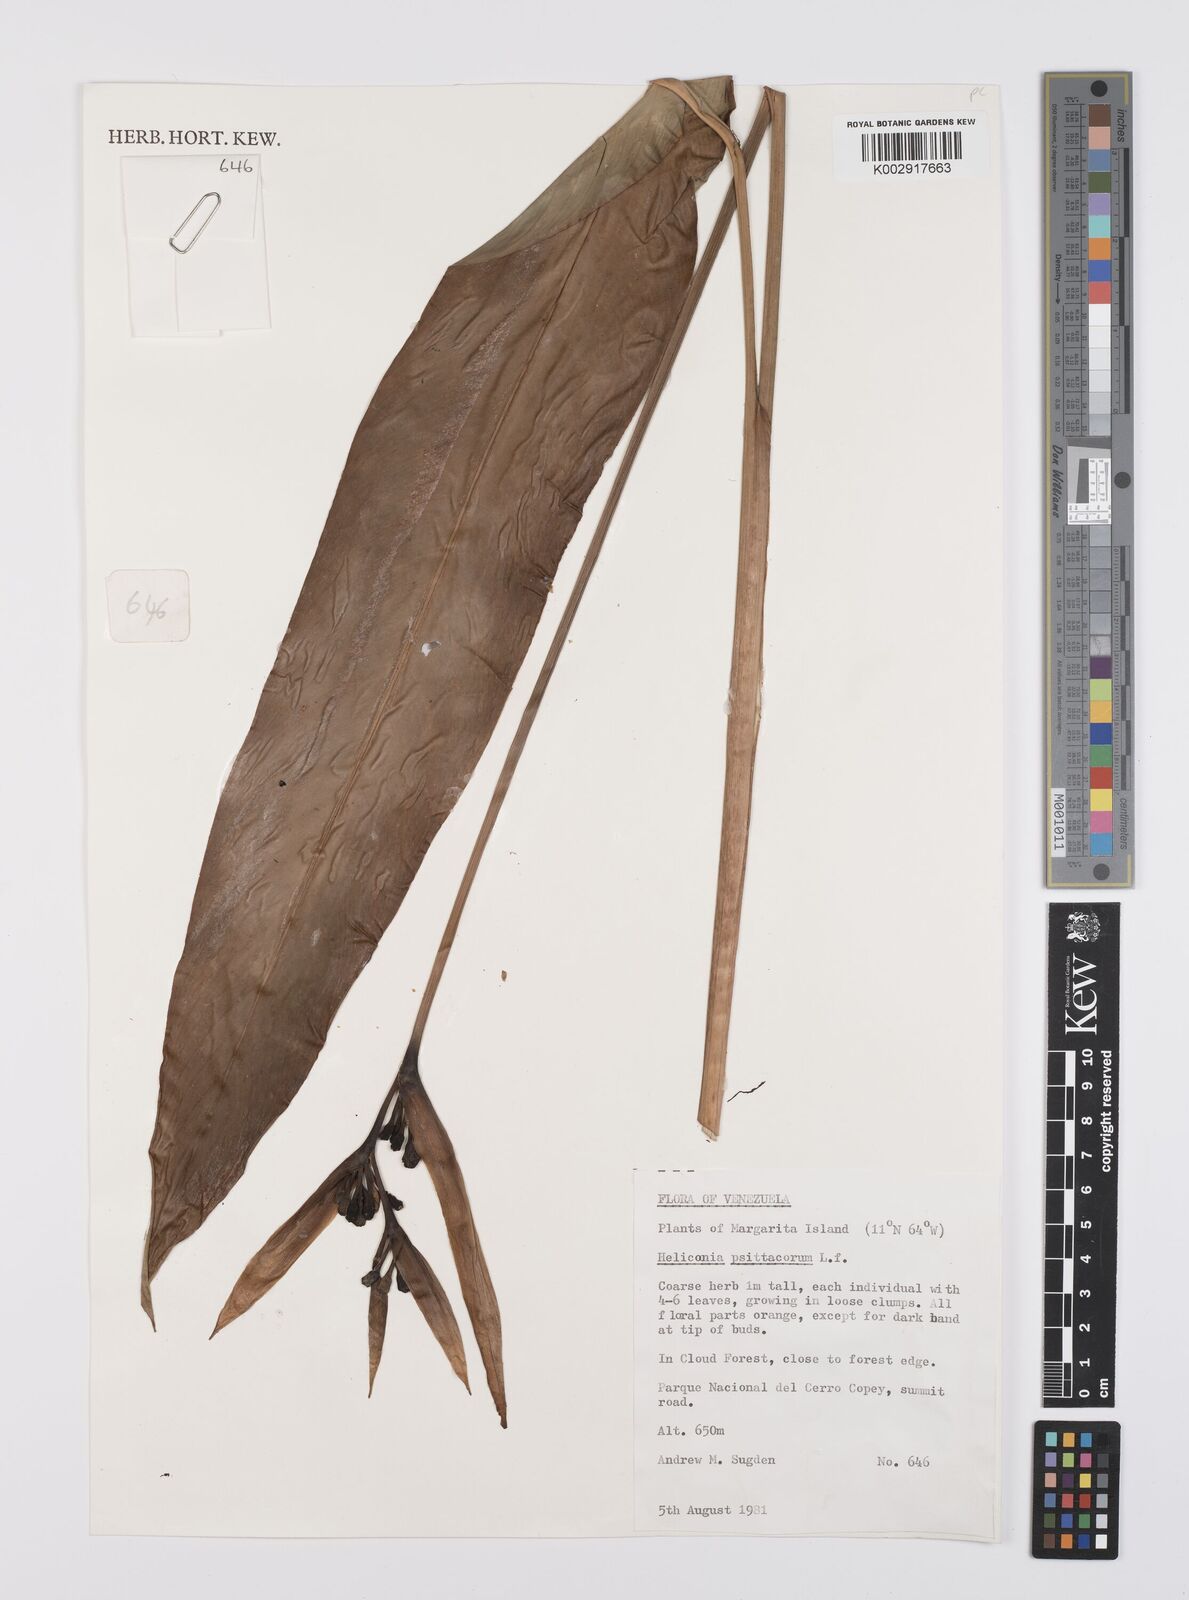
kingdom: Plantae
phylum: Tracheophyta
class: Liliopsida
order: Zingiberales
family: Heliconiaceae
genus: Heliconia
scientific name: Heliconia psittacorum
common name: Parrot's-flower
